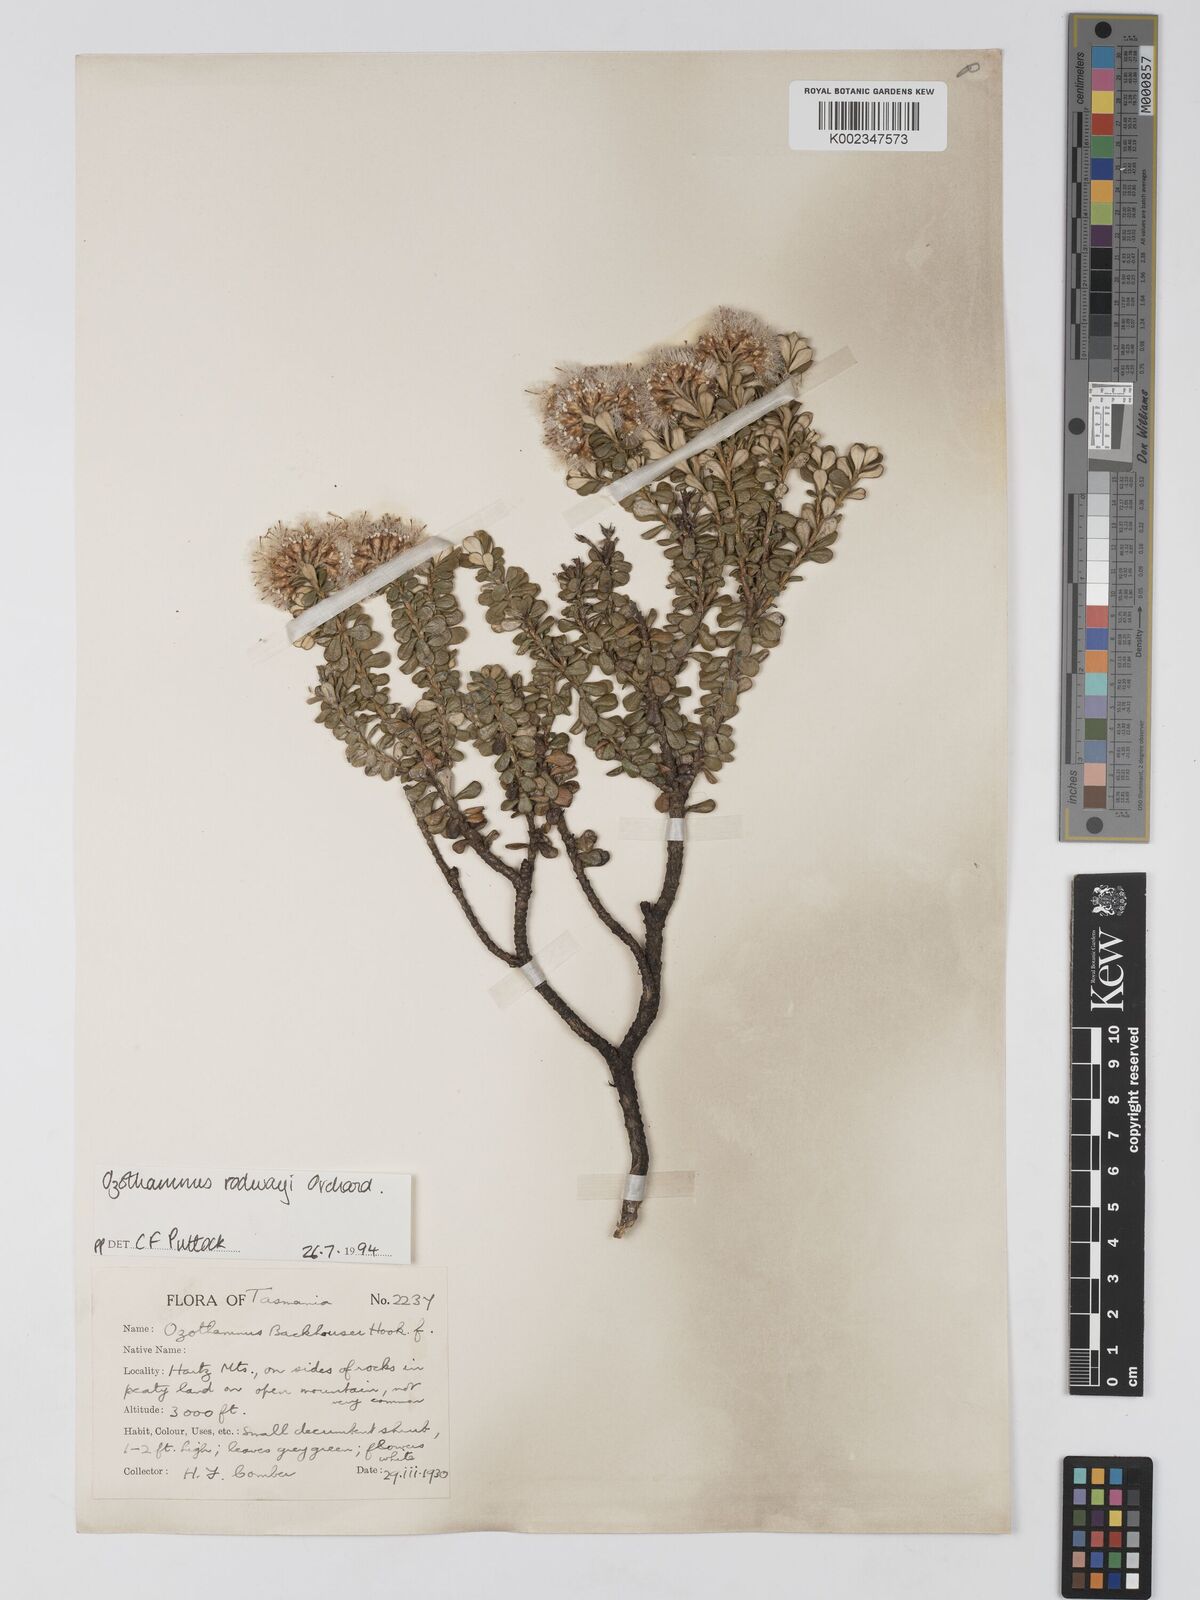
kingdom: Plantae
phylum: Tracheophyta
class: Magnoliopsida
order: Asterales
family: Asteraceae
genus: Ozothamnus
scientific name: Ozothamnus rodwayi
